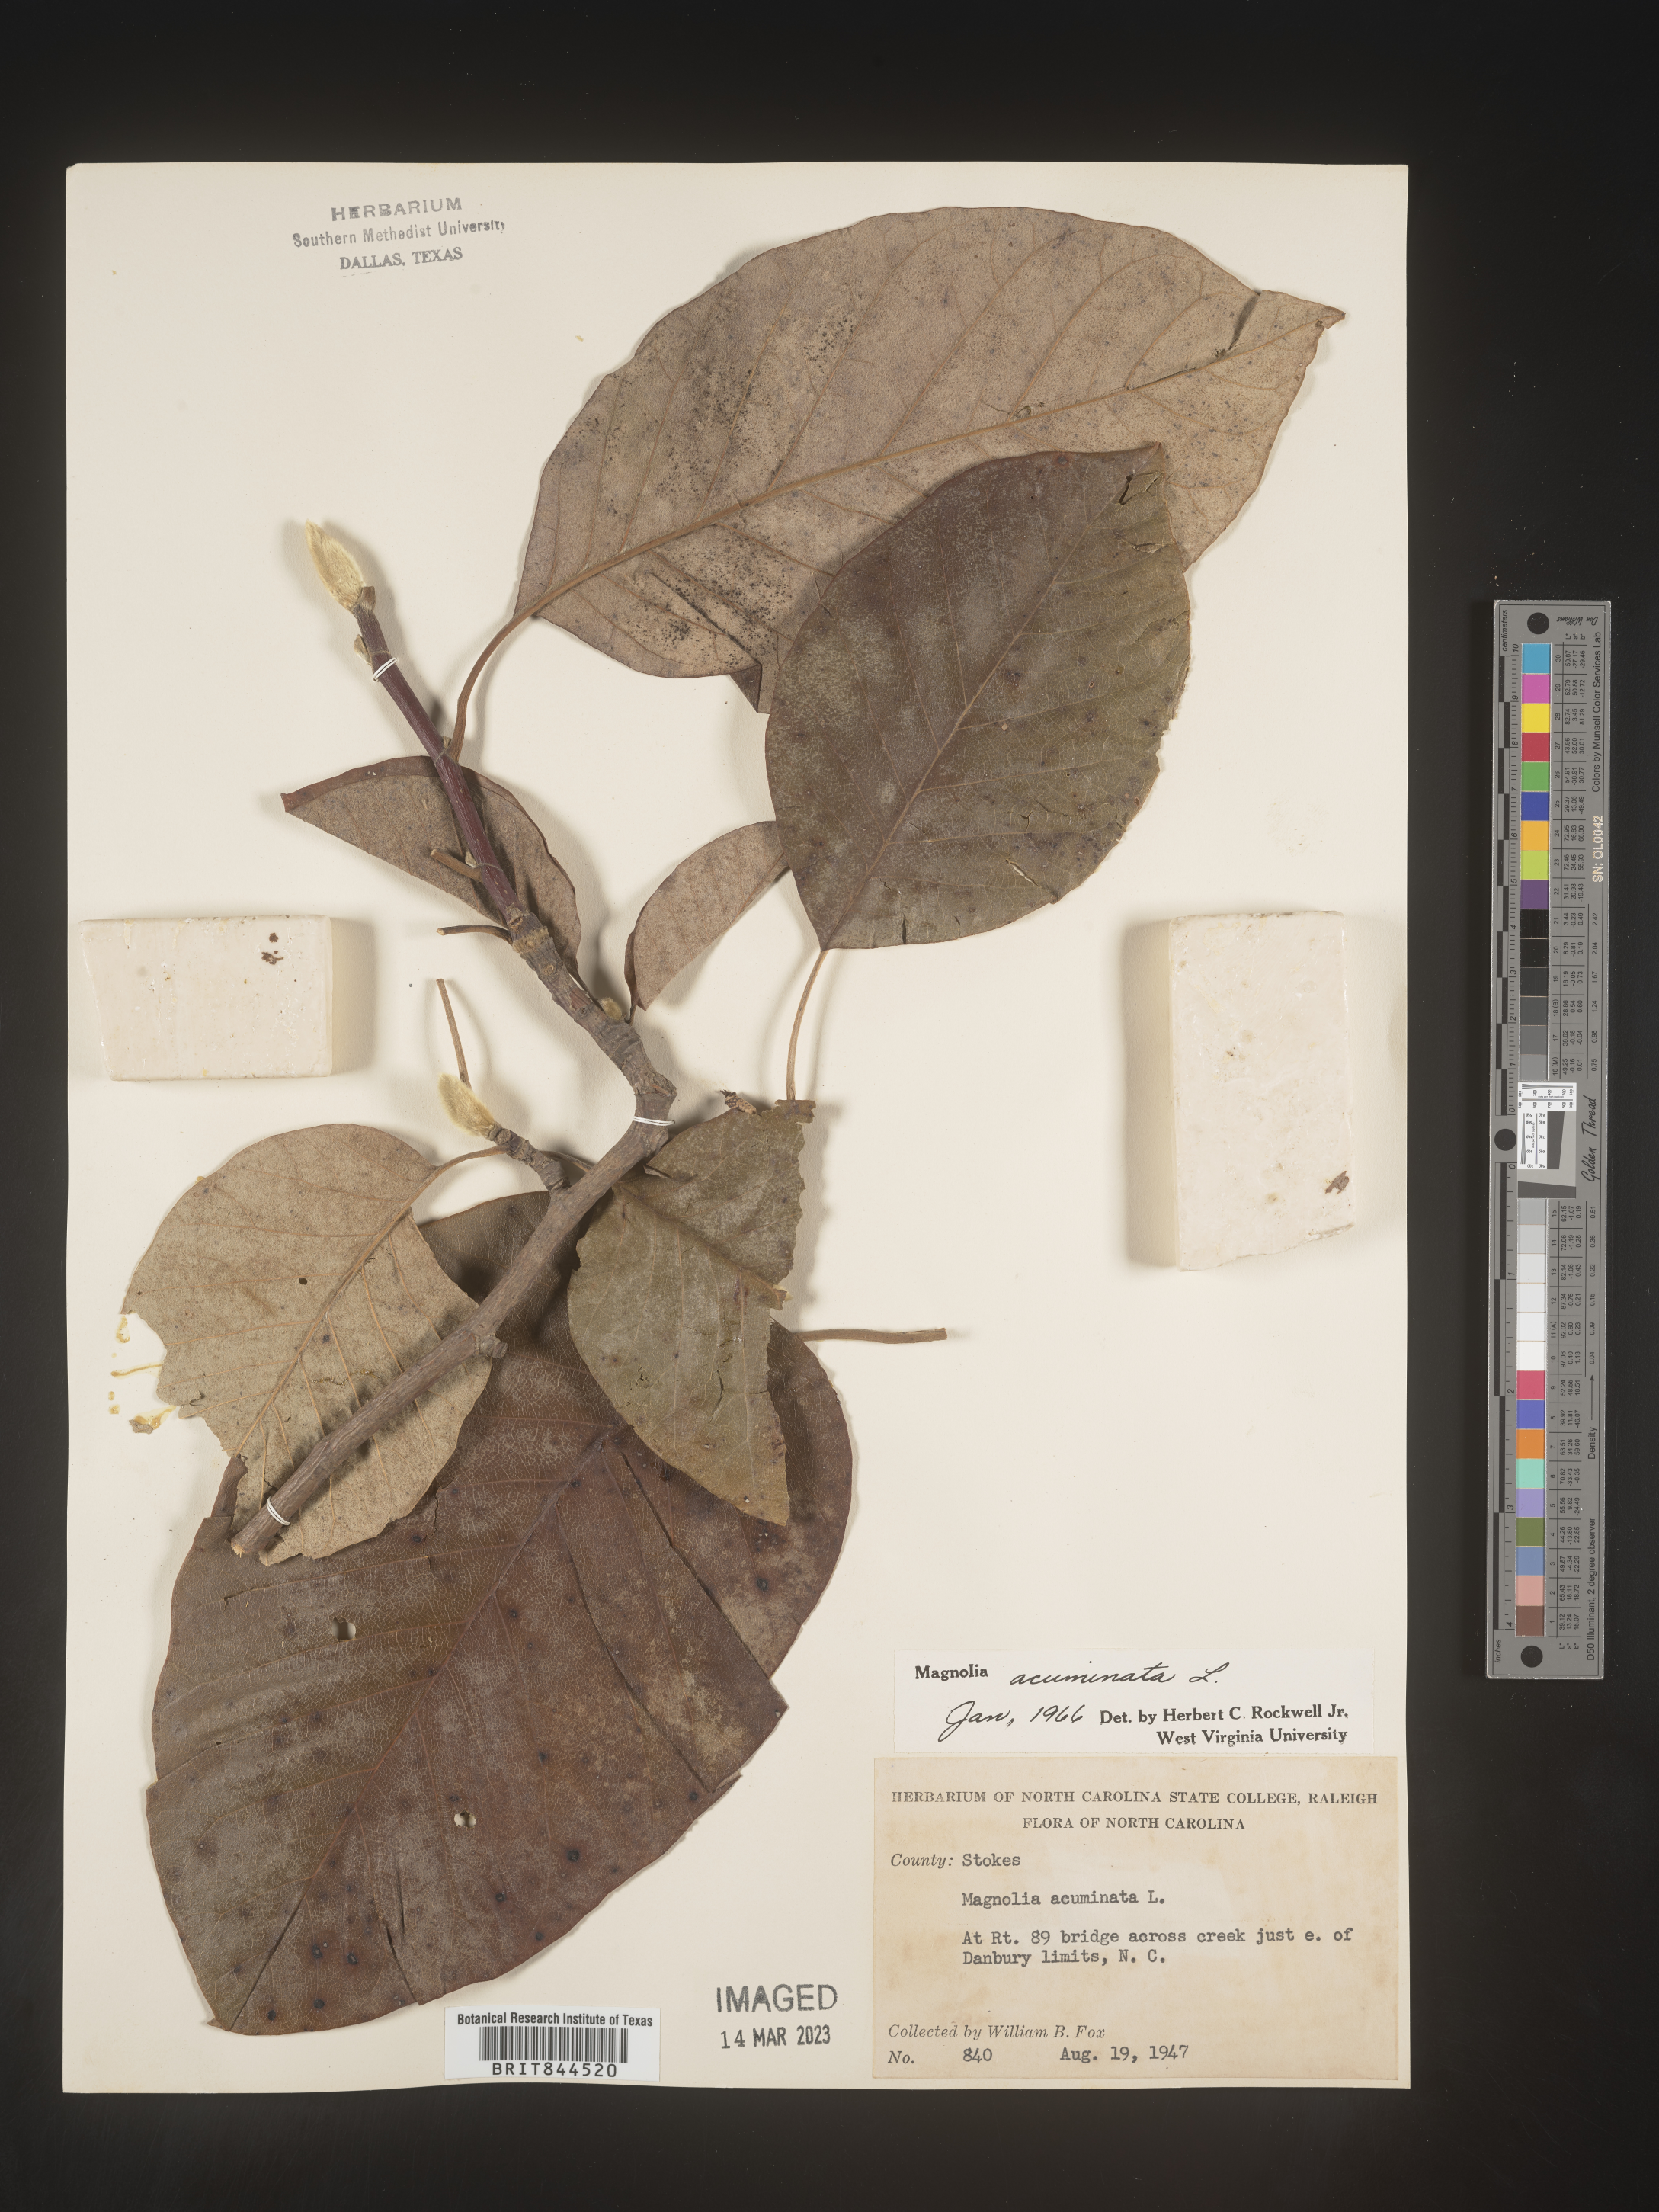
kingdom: Plantae
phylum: Tracheophyta
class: Magnoliopsida
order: Magnoliales
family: Magnoliaceae
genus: Magnolia
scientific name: Magnolia acuminata
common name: Cucumber magnolia
